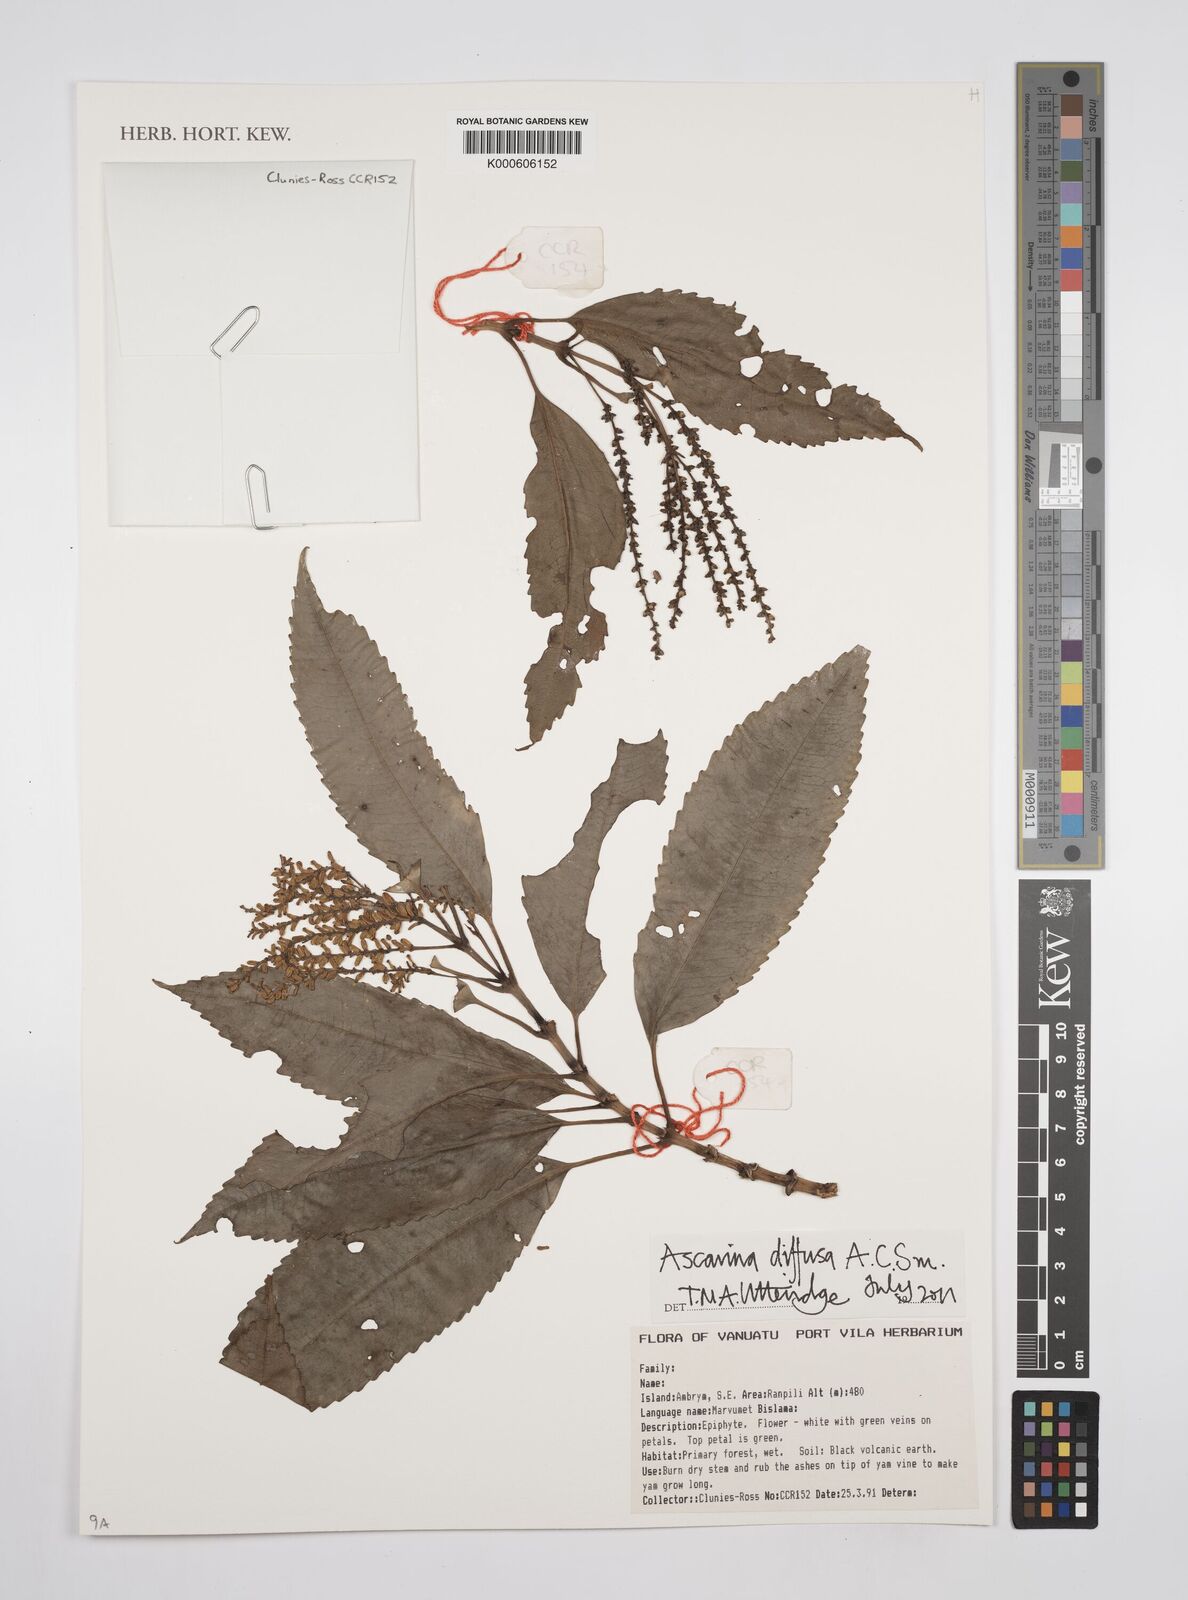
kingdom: Plantae
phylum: Tracheophyta
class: Magnoliopsida
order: Chloranthales
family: Chloranthaceae
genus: Ascarina
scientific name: Ascarina diffusa
